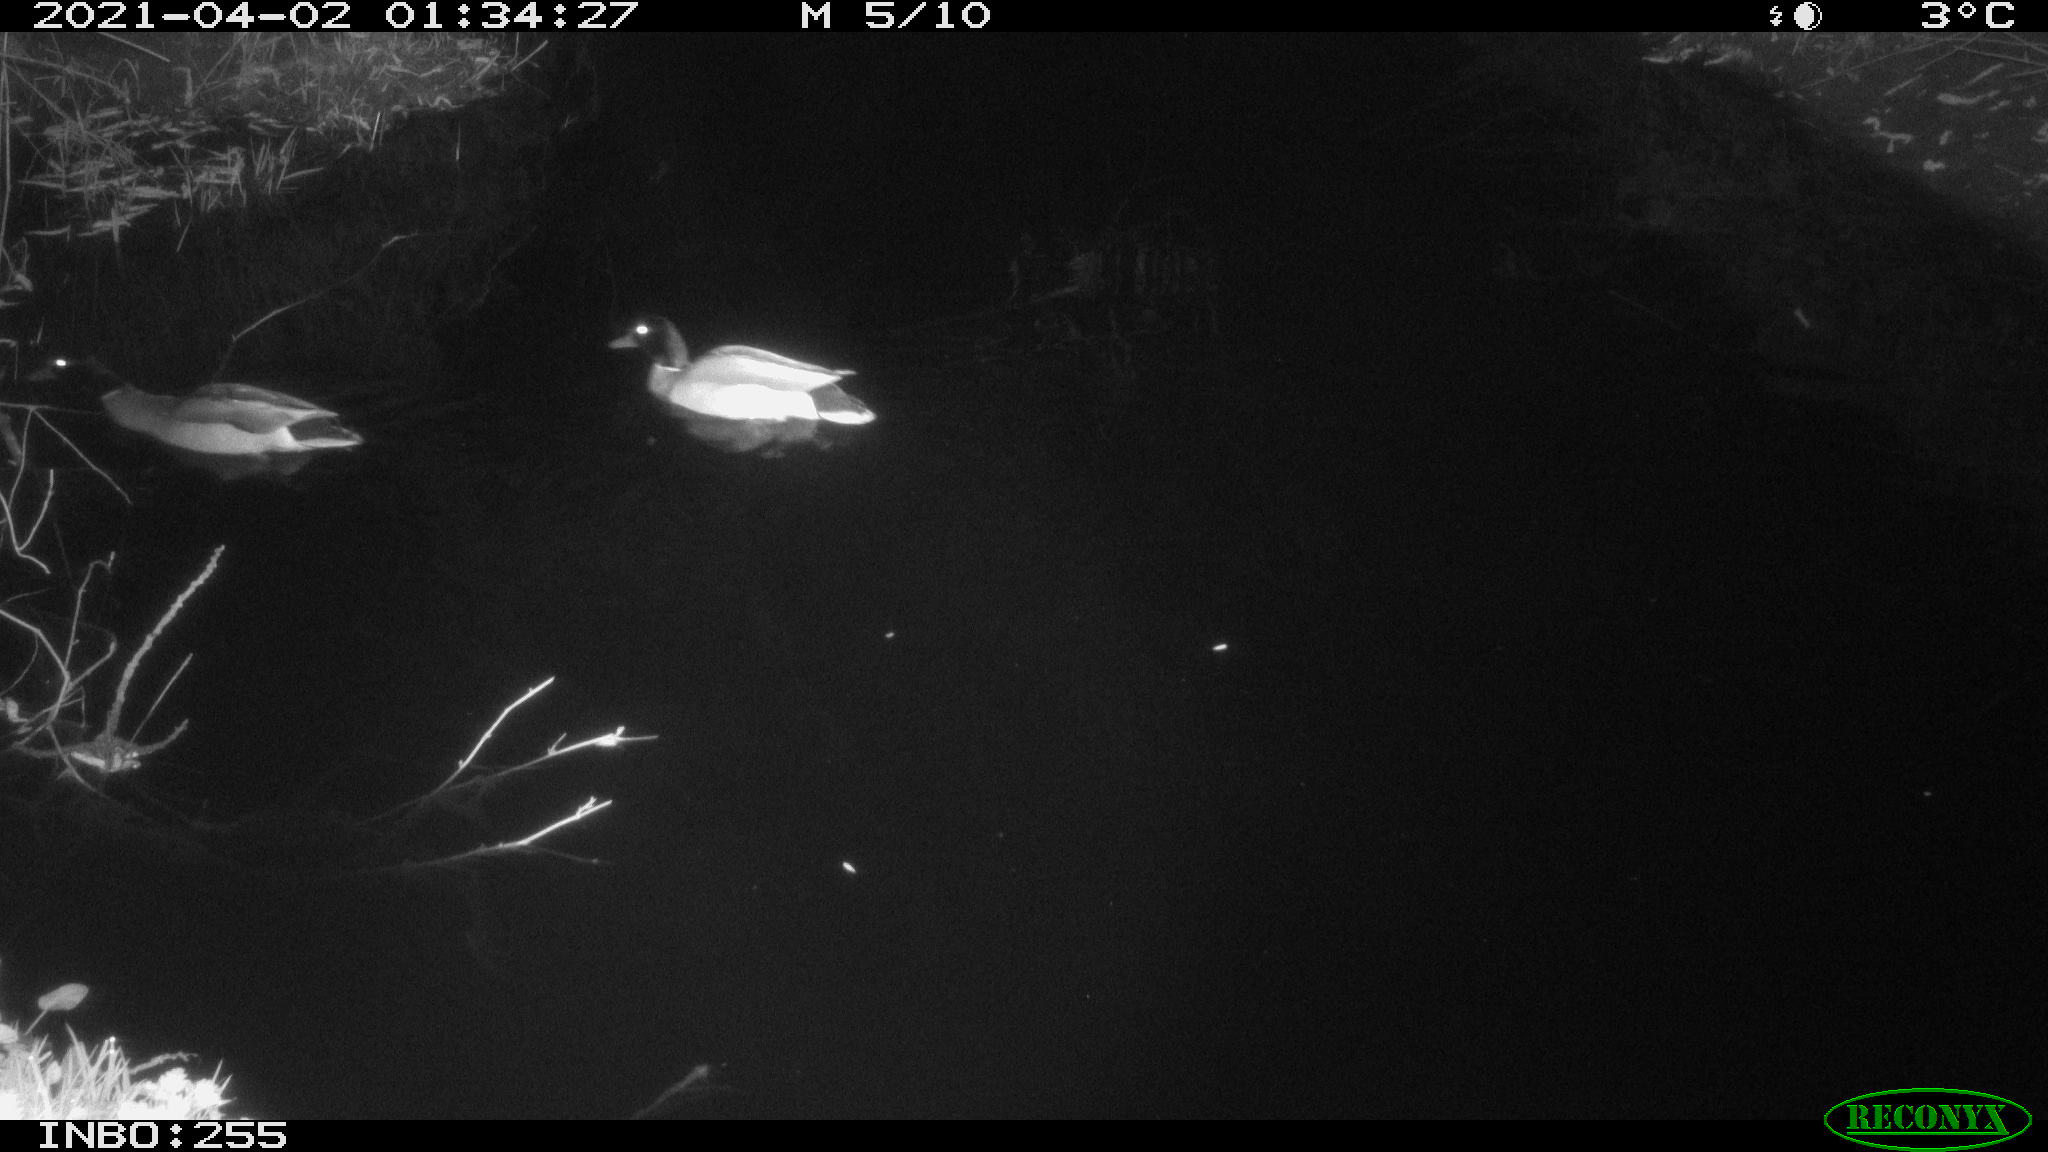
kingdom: Animalia
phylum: Chordata
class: Aves
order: Anseriformes
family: Anatidae
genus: Anas
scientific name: Anas platyrhynchos
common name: Mallard
